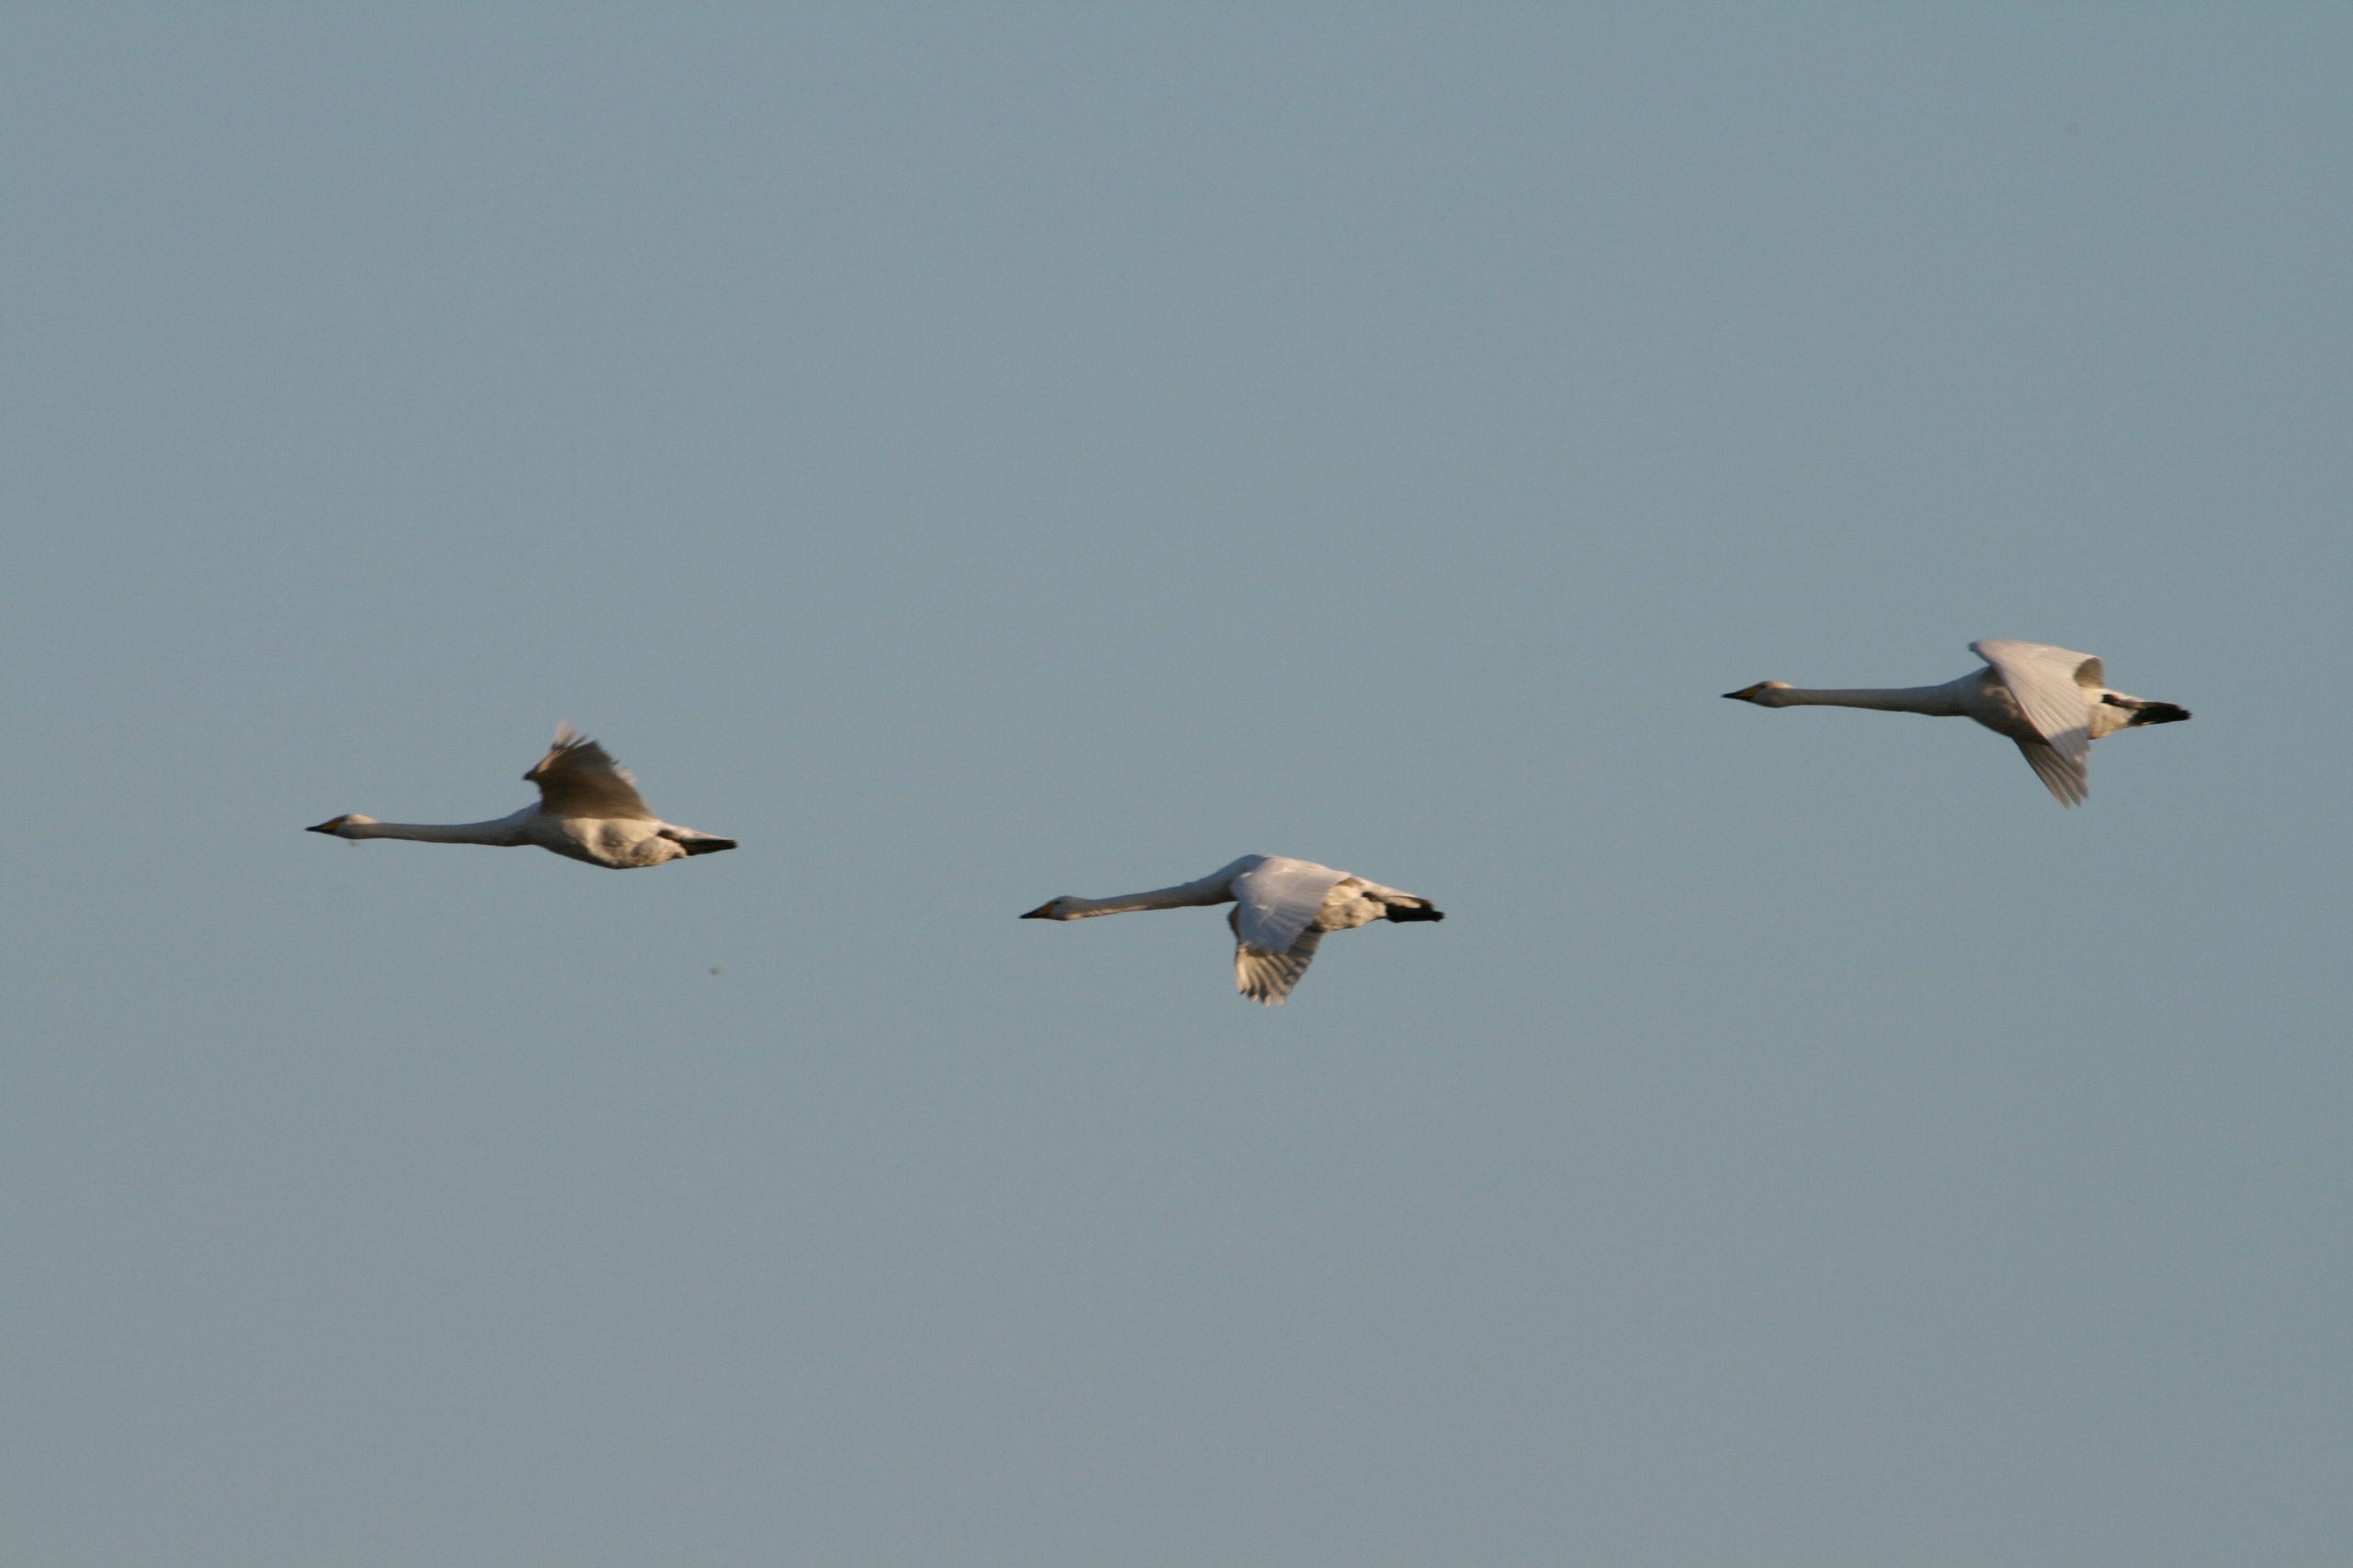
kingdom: Animalia
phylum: Chordata
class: Aves
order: Anseriformes
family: Anatidae
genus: Cygnus
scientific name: Cygnus cygnus
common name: Sangsvane
